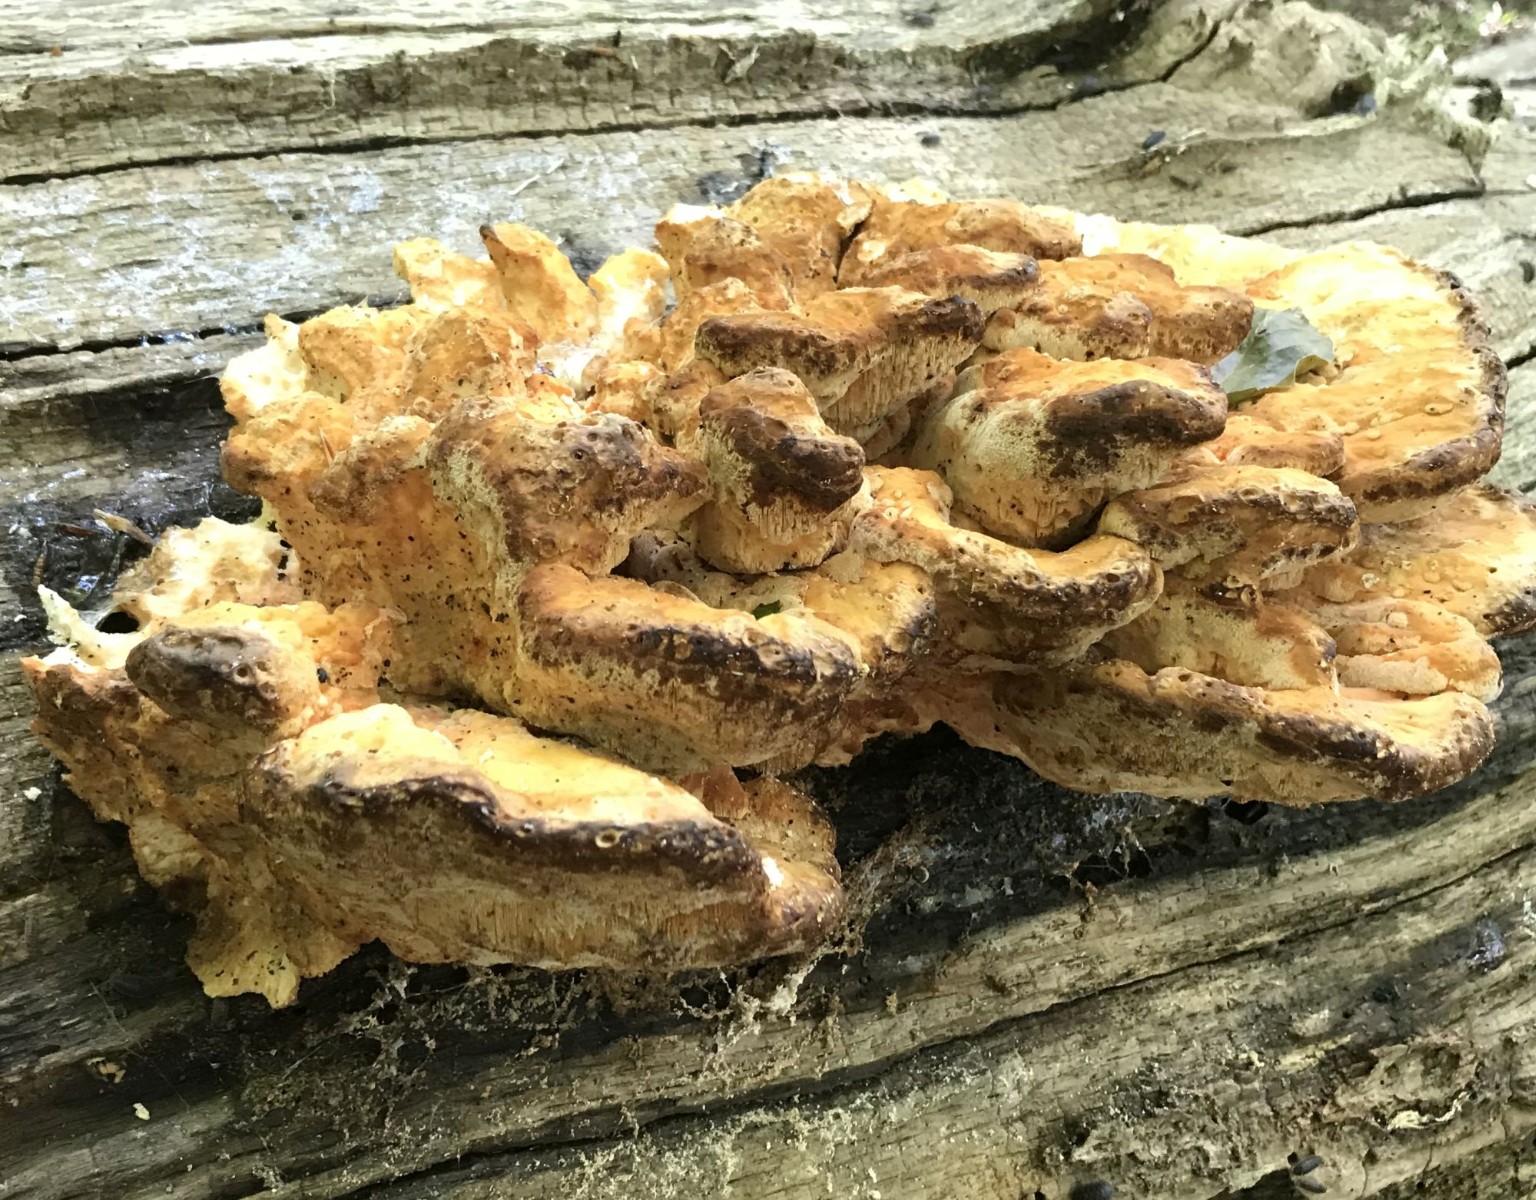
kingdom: Fungi
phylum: Basidiomycota
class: Agaricomycetes
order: Polyporales
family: Laetiporaceae
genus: Laetiporus
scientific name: Laetiporus sulphureus
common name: svovlporesvamp
